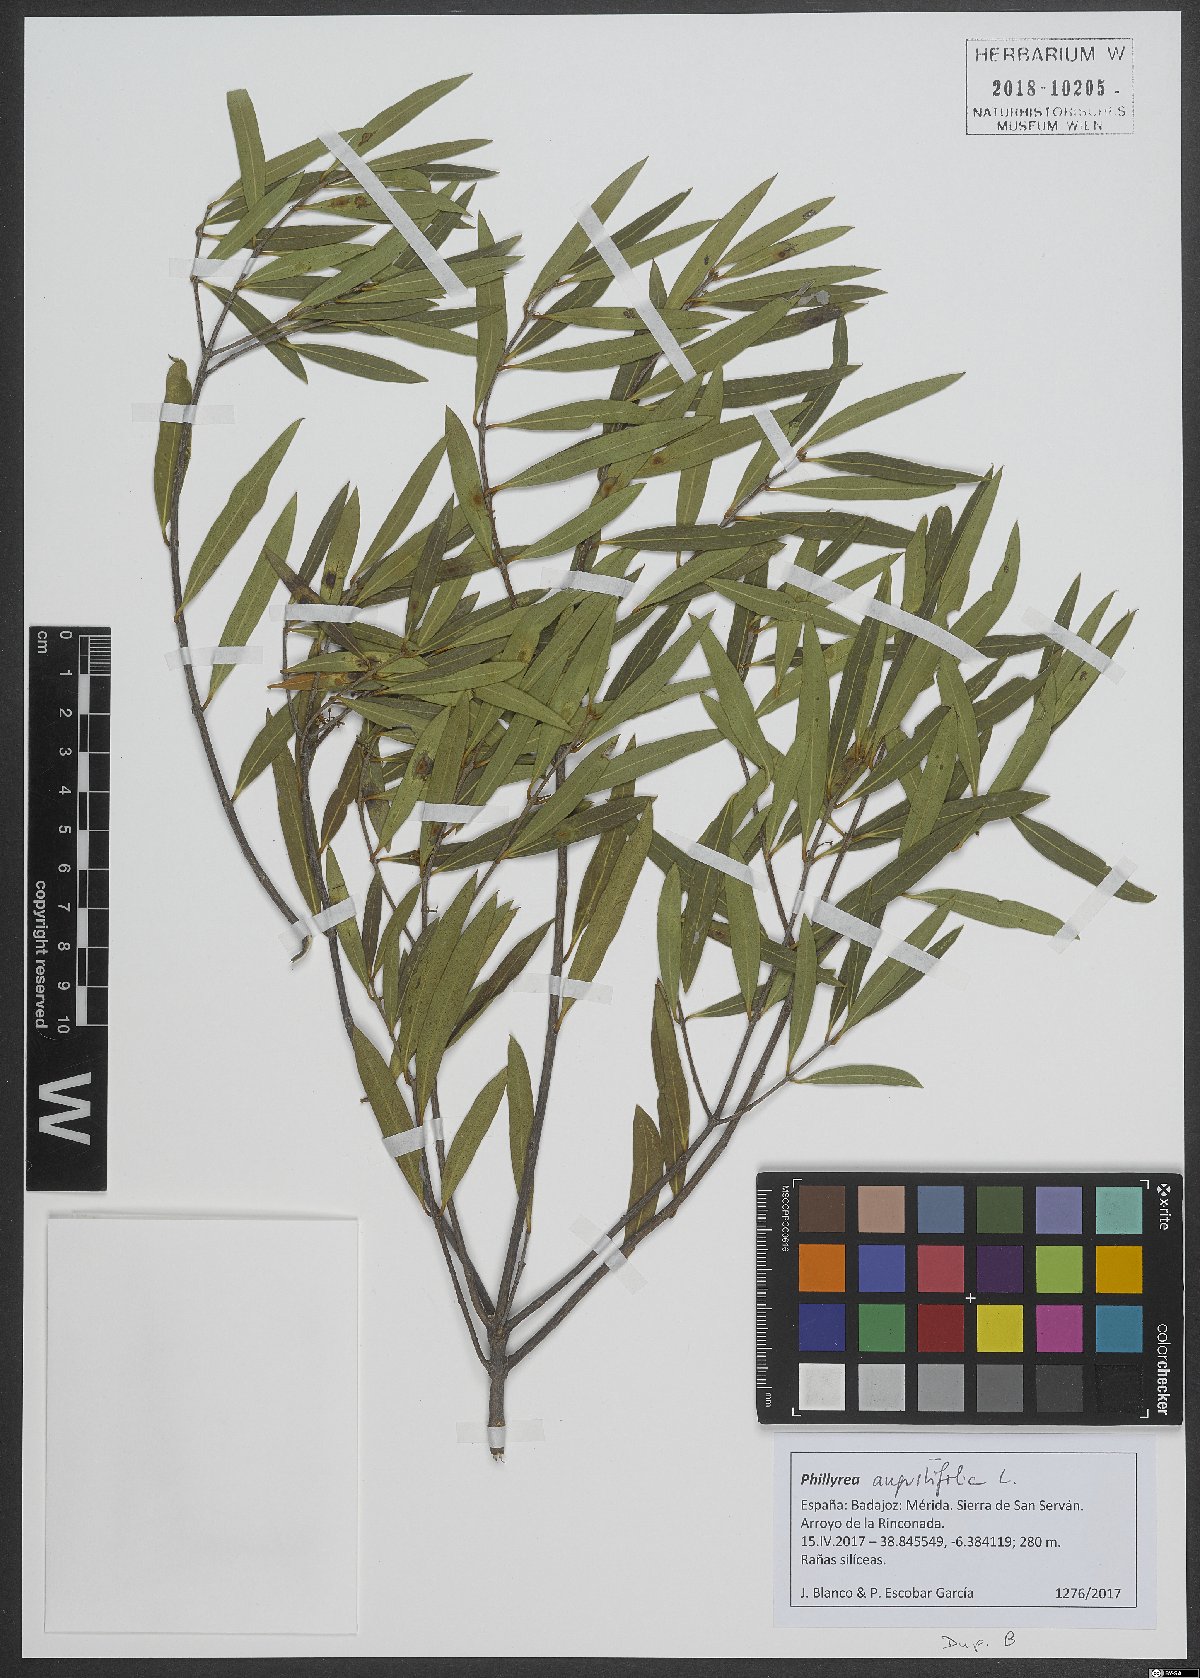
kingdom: Plantae
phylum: Tracheophyta
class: Magnoliopsida
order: Lamiales
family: Oleaceae
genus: Phillyrea
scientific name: Phillyrea angustifolia
